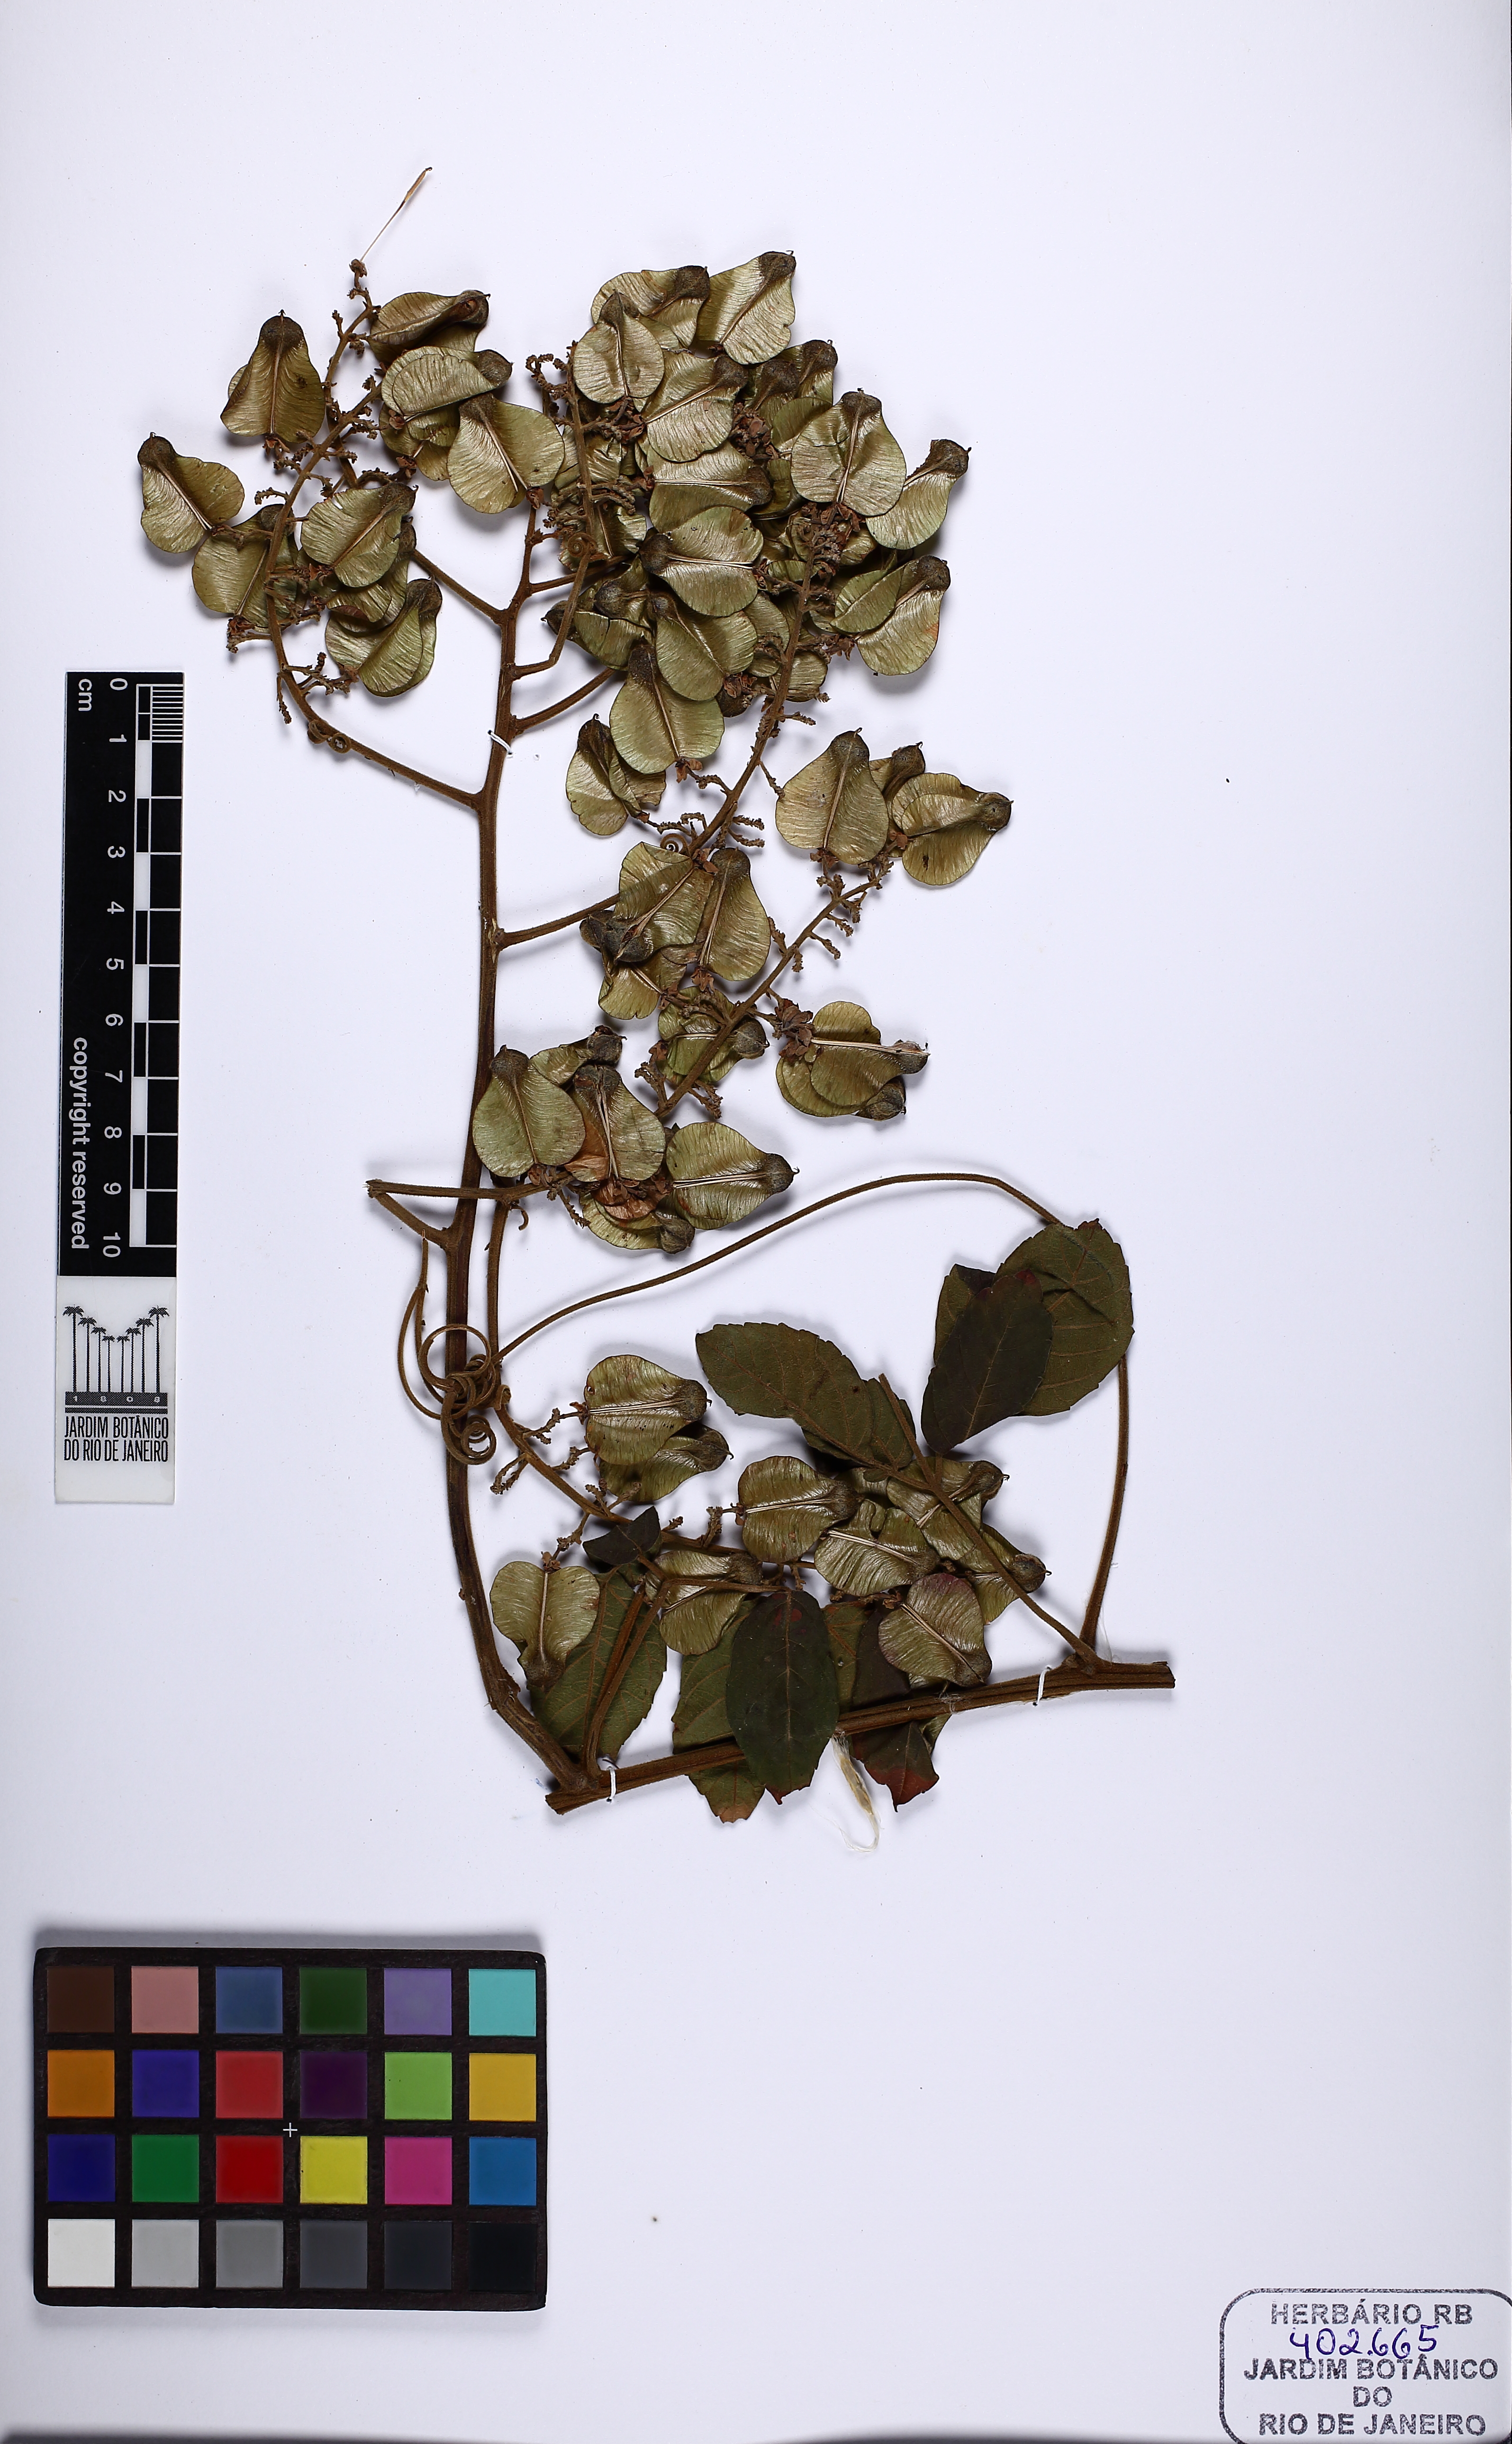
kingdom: Plantae
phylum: Tracheophyta
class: Polypodiopsida
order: Polypodiales
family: Blechnaceae
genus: Neoblechnum
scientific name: Neoblechnum brasiliense
